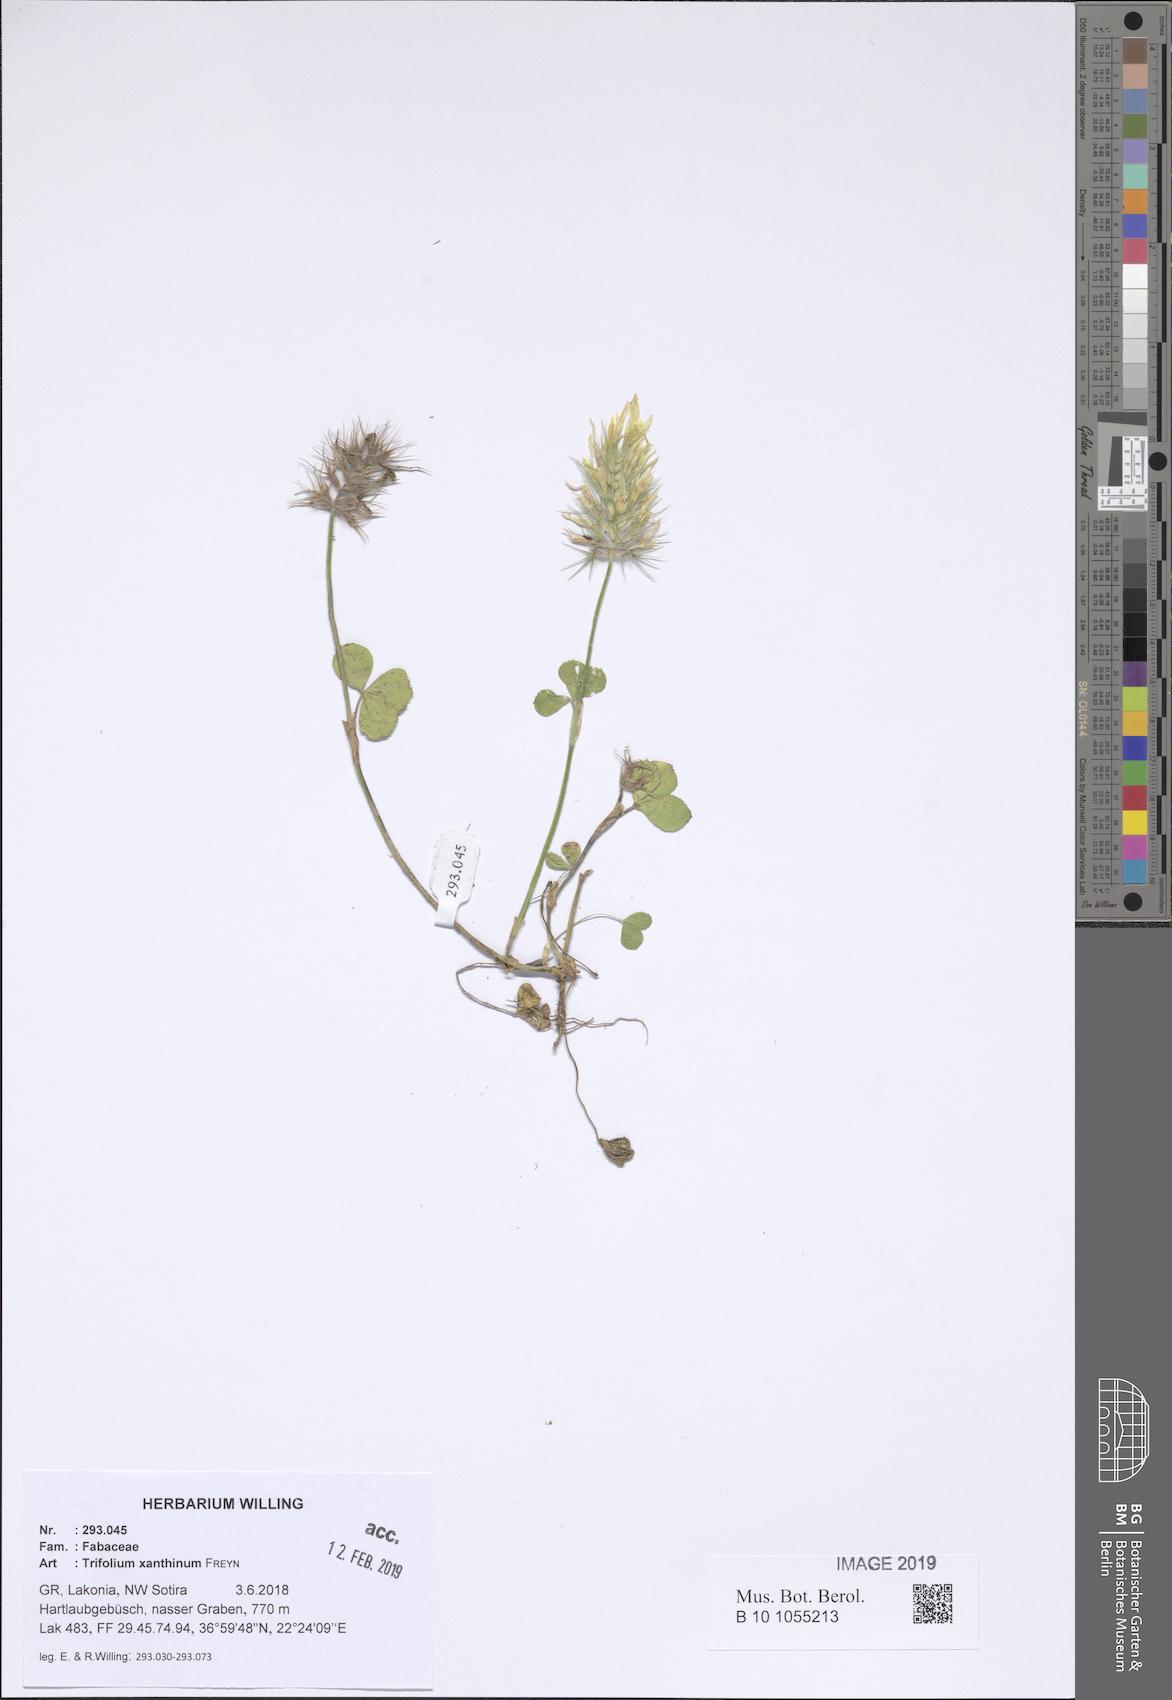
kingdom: Plantae
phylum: Tracheophyta
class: Magnoliopsida
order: Fabales
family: Fabaceae
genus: Trifolium
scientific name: Trifolium xanthinum
